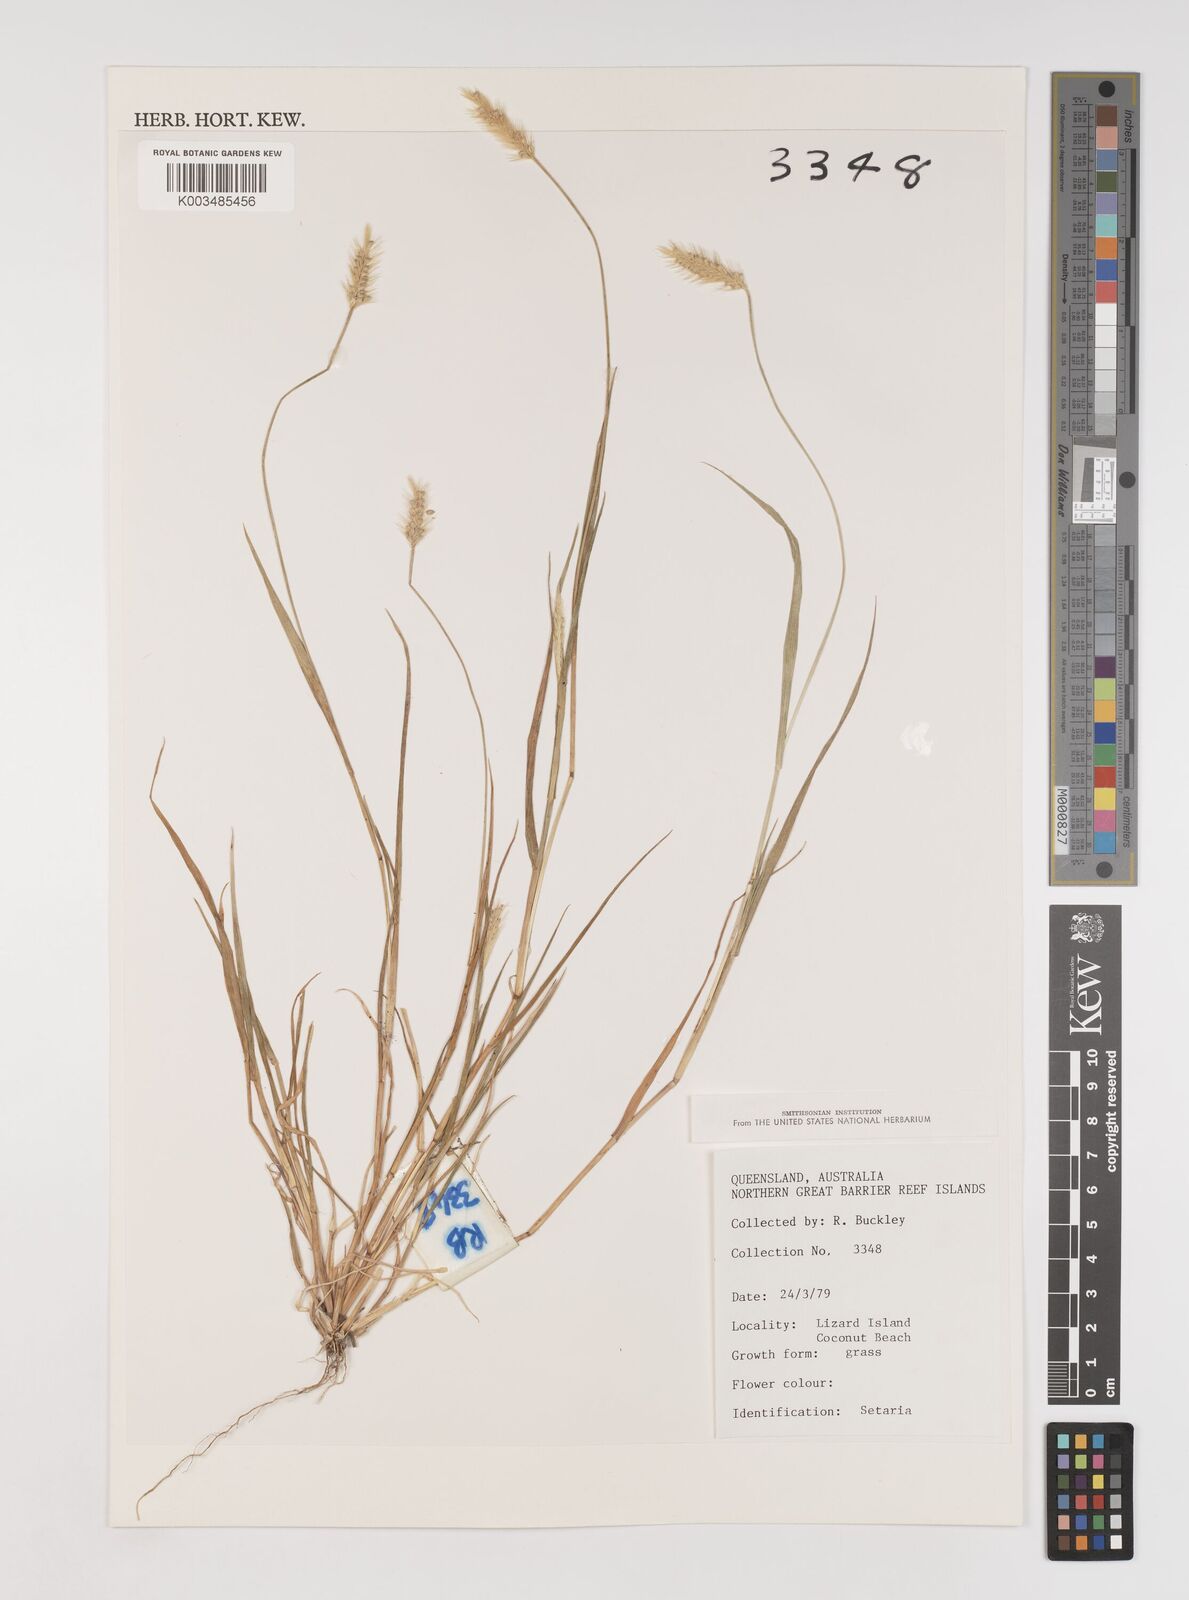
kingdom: Plantae
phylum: Tracheophyta
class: Liliopsida
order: Poales
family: Poaceae
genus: Setaria
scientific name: Setaria pumila
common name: Yellow bristle-grass
